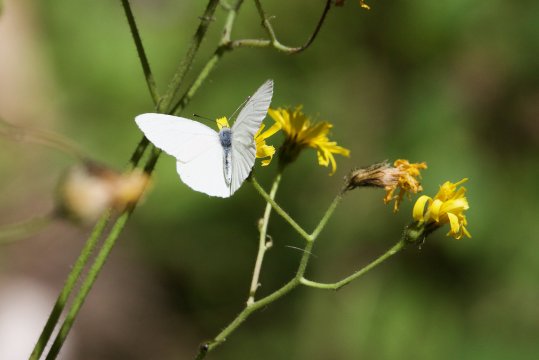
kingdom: Animalia
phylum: Arthropoda
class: Insecta
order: Lepidoptera
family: Pieridae
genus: Pieris
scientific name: Pieris oleracea
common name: Mustard White
